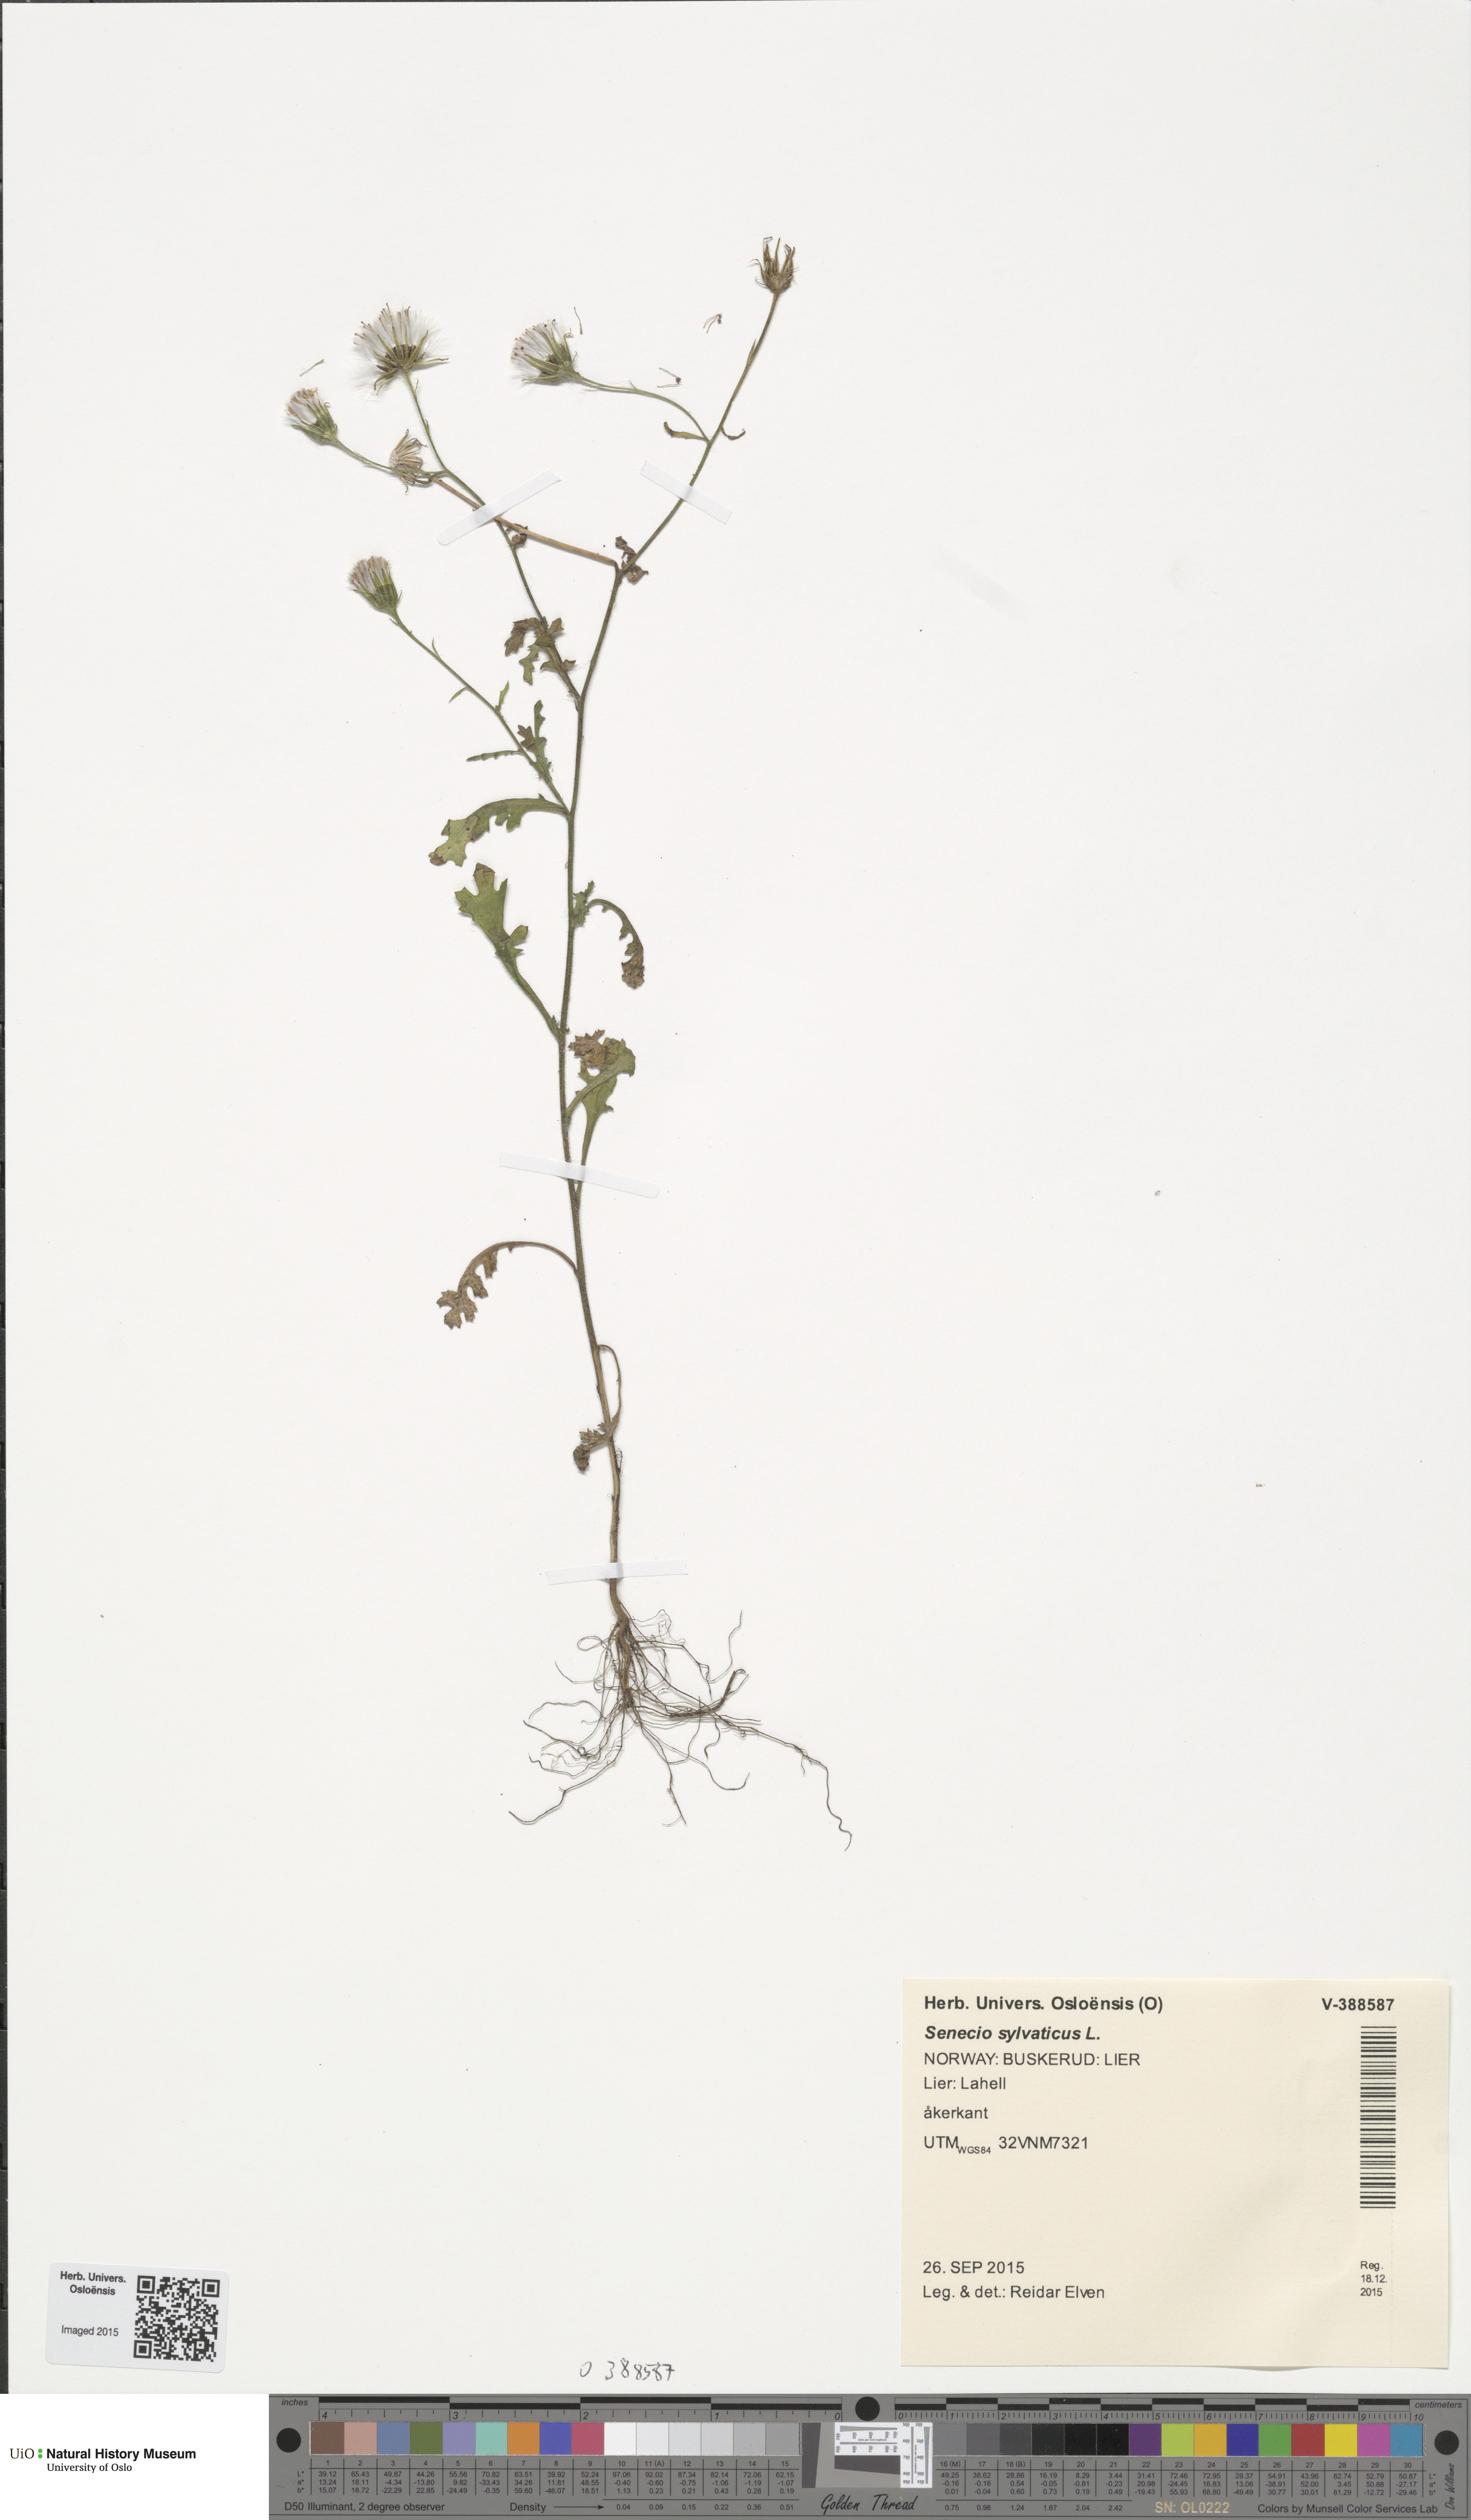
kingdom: Plantae
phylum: Tracheophyta
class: Magnoliopsida
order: Asterales
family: Asteraceae
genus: Senecio
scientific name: Senecio sylvaticus
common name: Woodland ragwort
